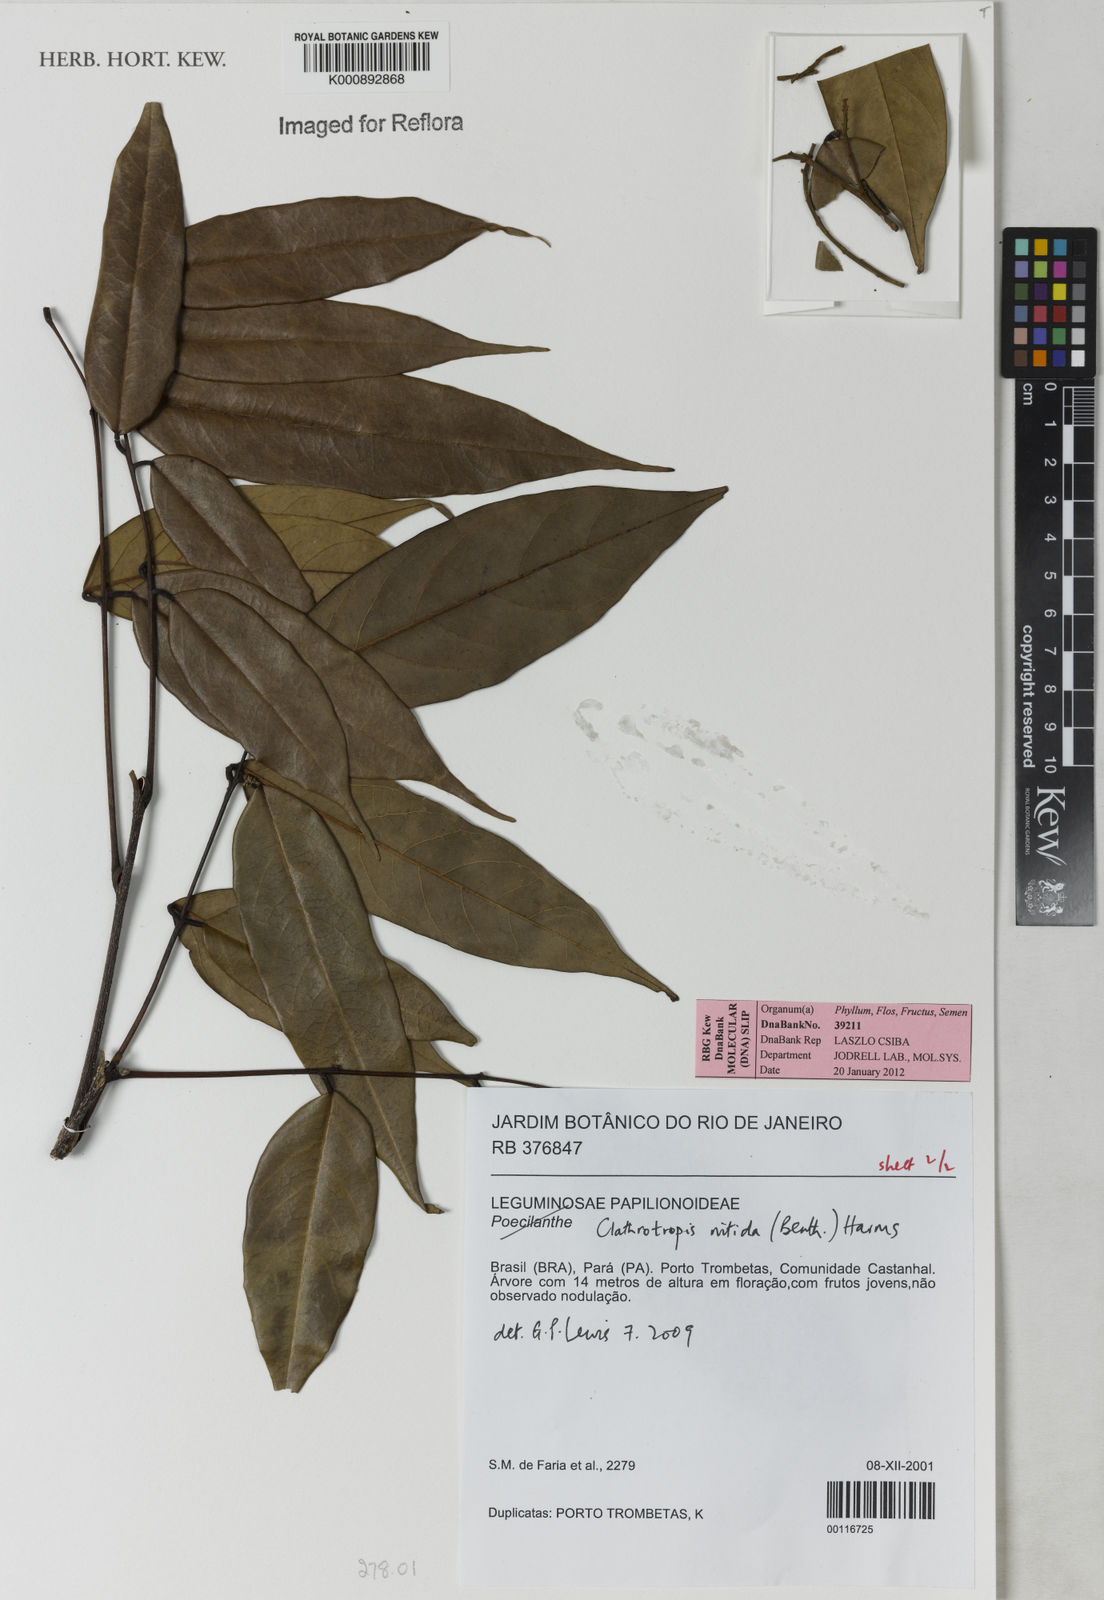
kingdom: Plantae
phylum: Tracheophyta
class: Magnoliopsida
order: Fabales
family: Fabaceae
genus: Clathrotropis
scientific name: Clathrotropis nitida
